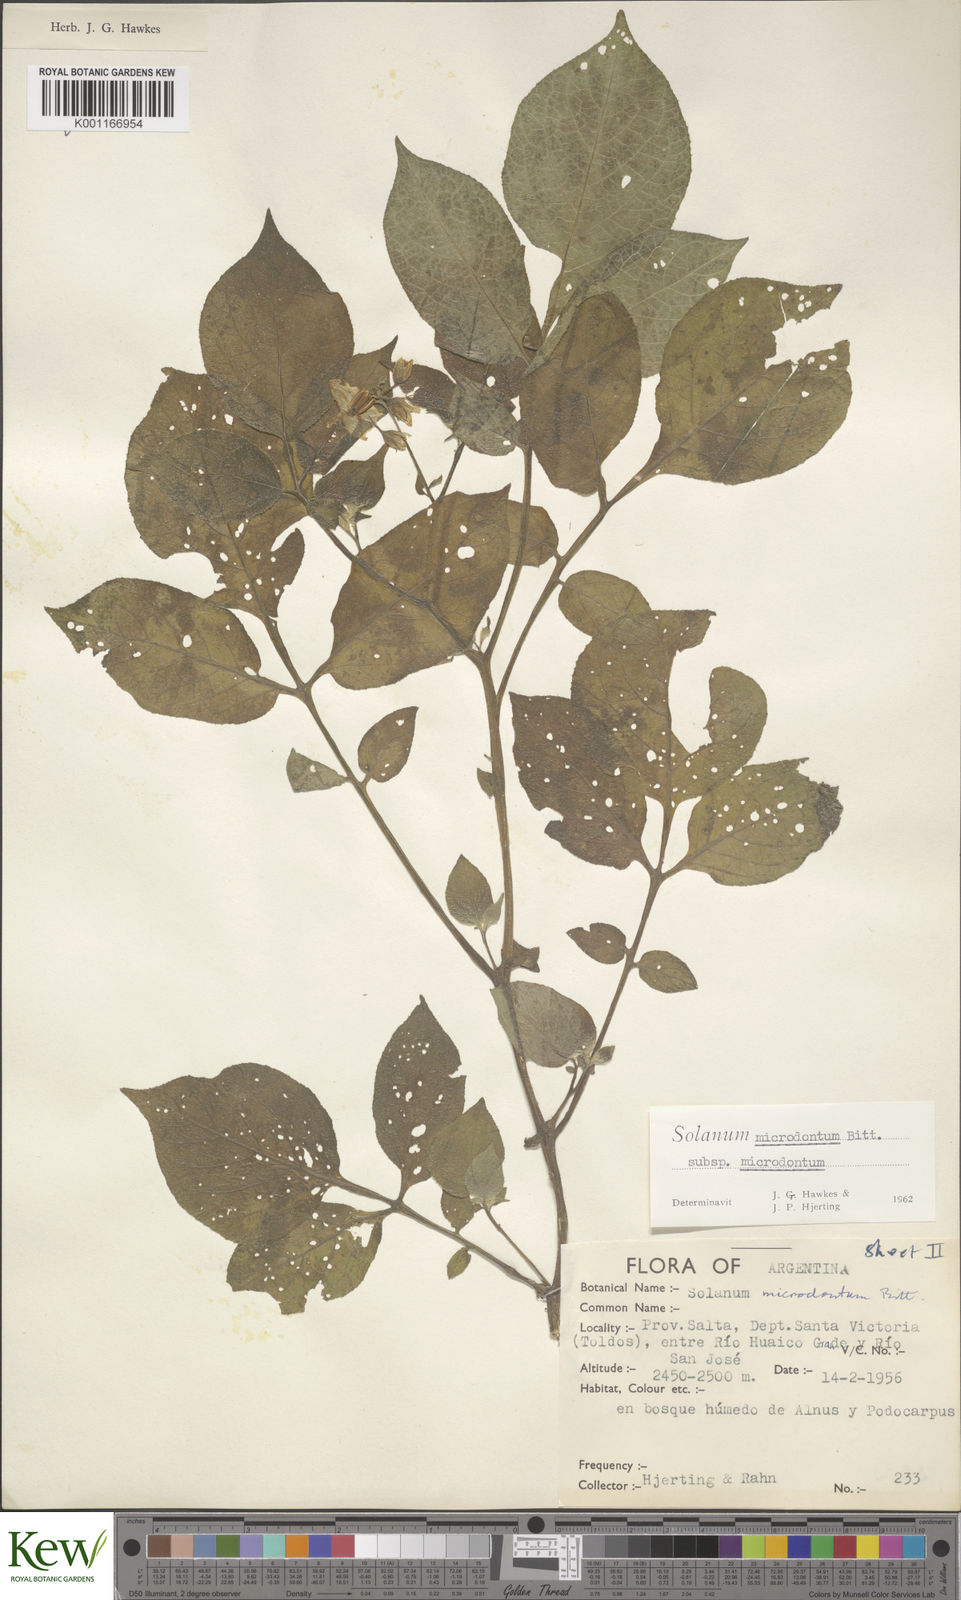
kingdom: Plantae
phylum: Tracheophyta
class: Magnoliopsida
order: Solanales
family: Solanaceae
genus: Solanum
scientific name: Solanum microdontum
